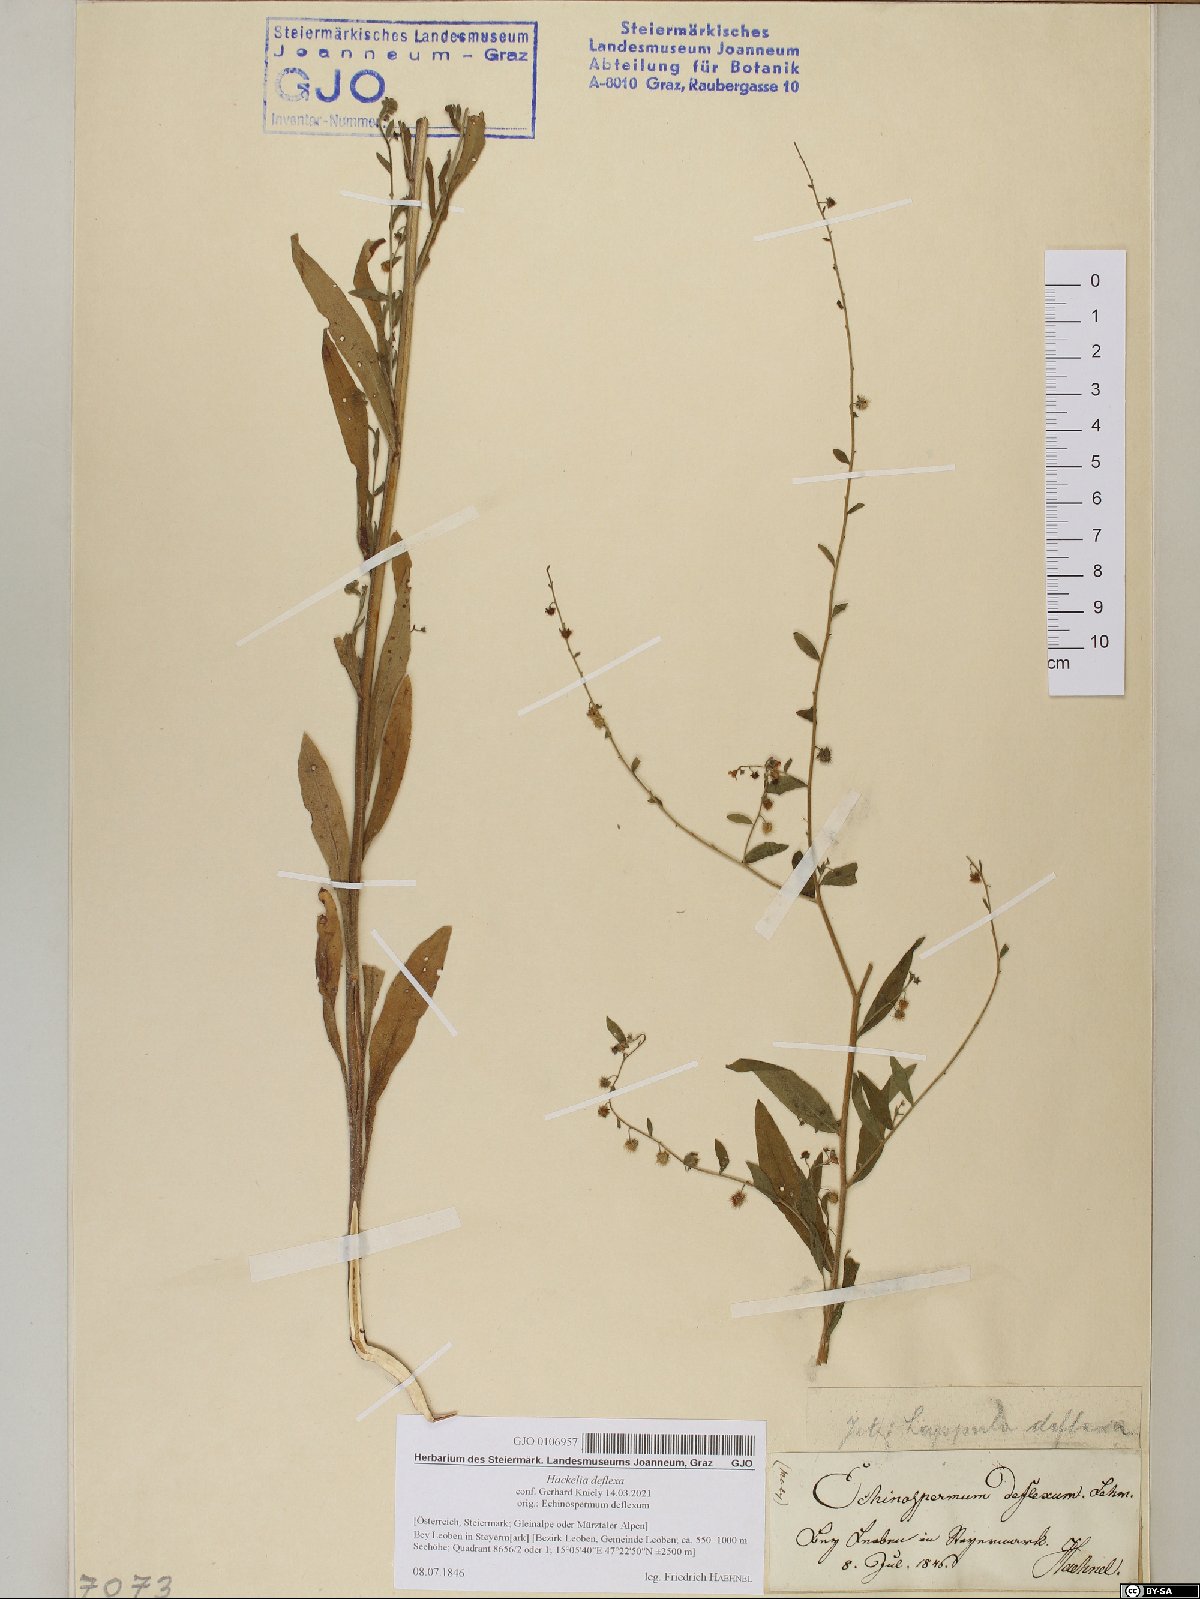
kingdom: Plantae
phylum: Tracheophyta
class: Magnoliopsida
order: Boraginales
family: Boraginaceae
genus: Hackelia
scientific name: Hackelia deflexa
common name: Nodding stickseed
